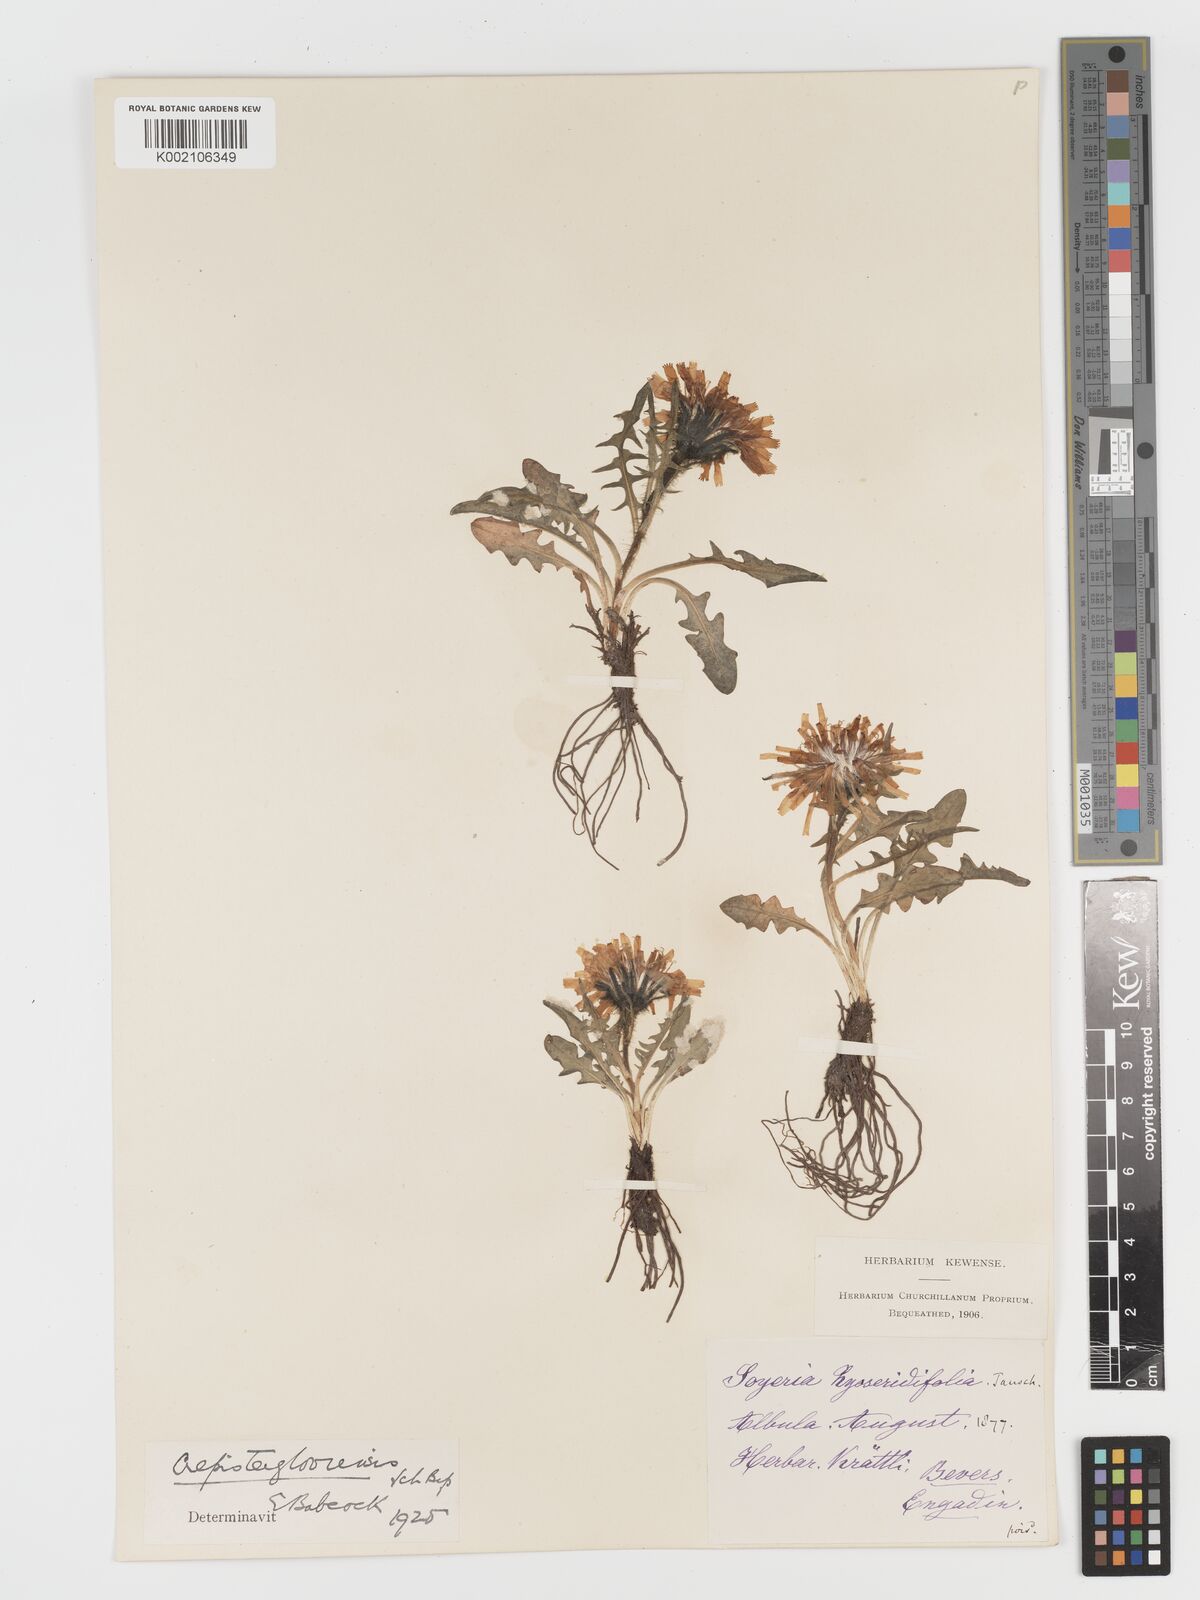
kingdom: Plantae
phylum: Tracheophyta
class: Magnoliopsida
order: Asterales
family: Asteraceae
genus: Crepis
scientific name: Crepis
